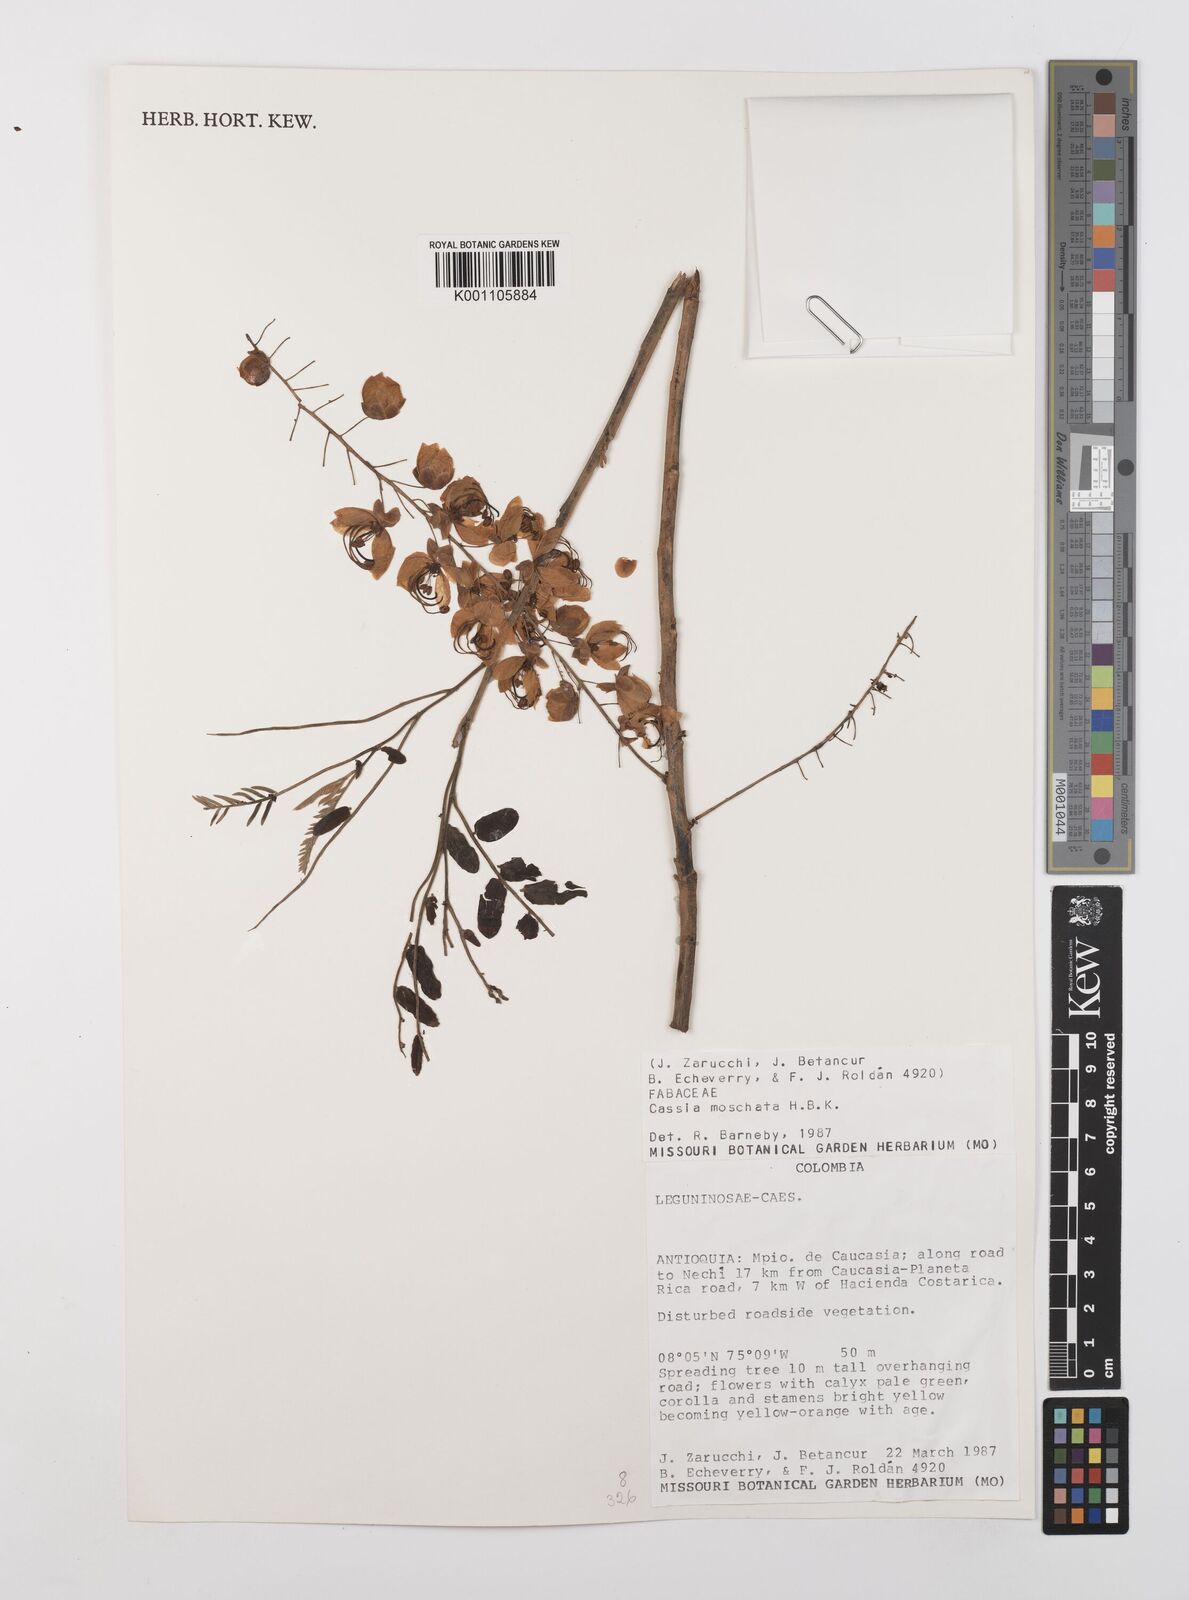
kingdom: Plantae
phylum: Tracheophyta
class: Magnoliopsida
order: Fabales
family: Fabaceae
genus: Cassia
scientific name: Cassia moschata
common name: Bronze shower tree
